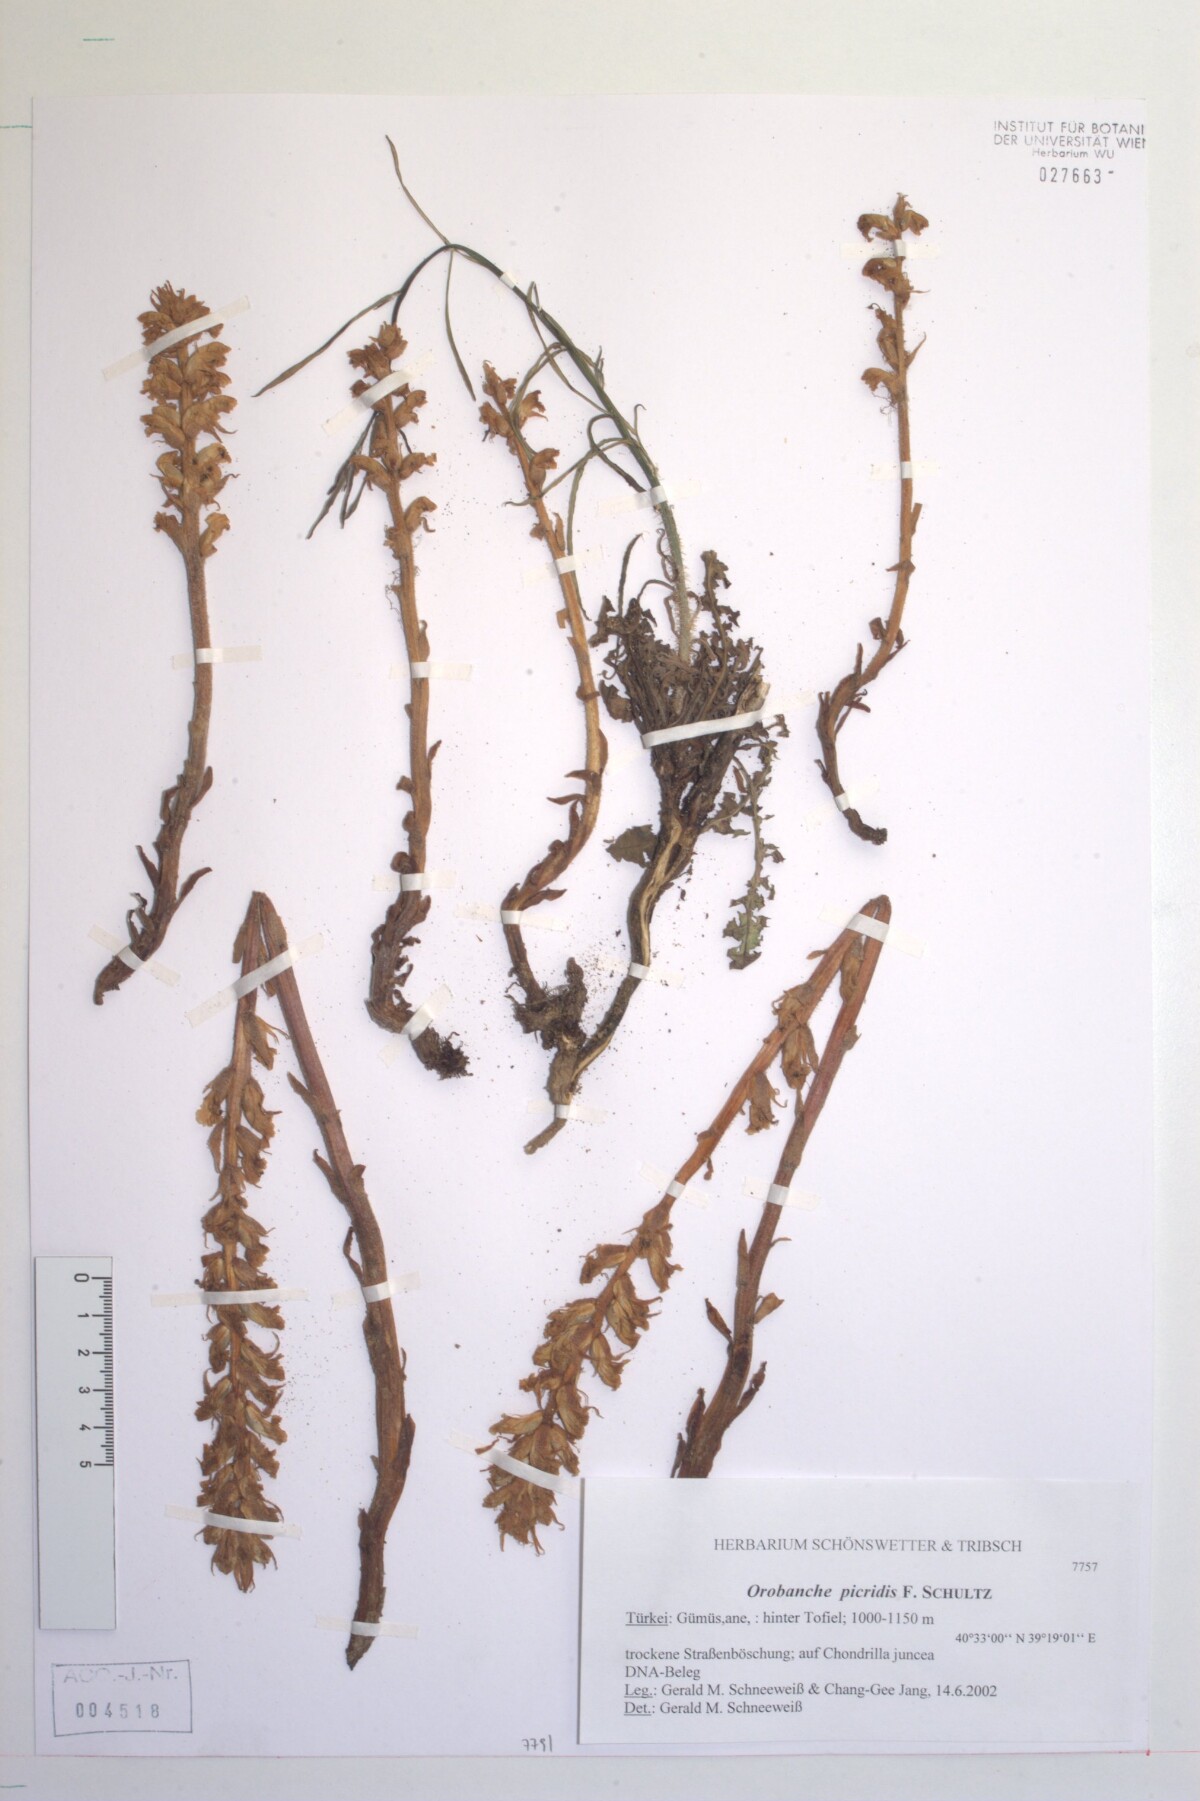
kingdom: Plantae
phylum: Tracheophyta
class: Magnoliopsida
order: Lamiales
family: Orobanchaceae
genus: Orobanche
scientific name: Orobanche picridis
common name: Oxtongue broomrape
